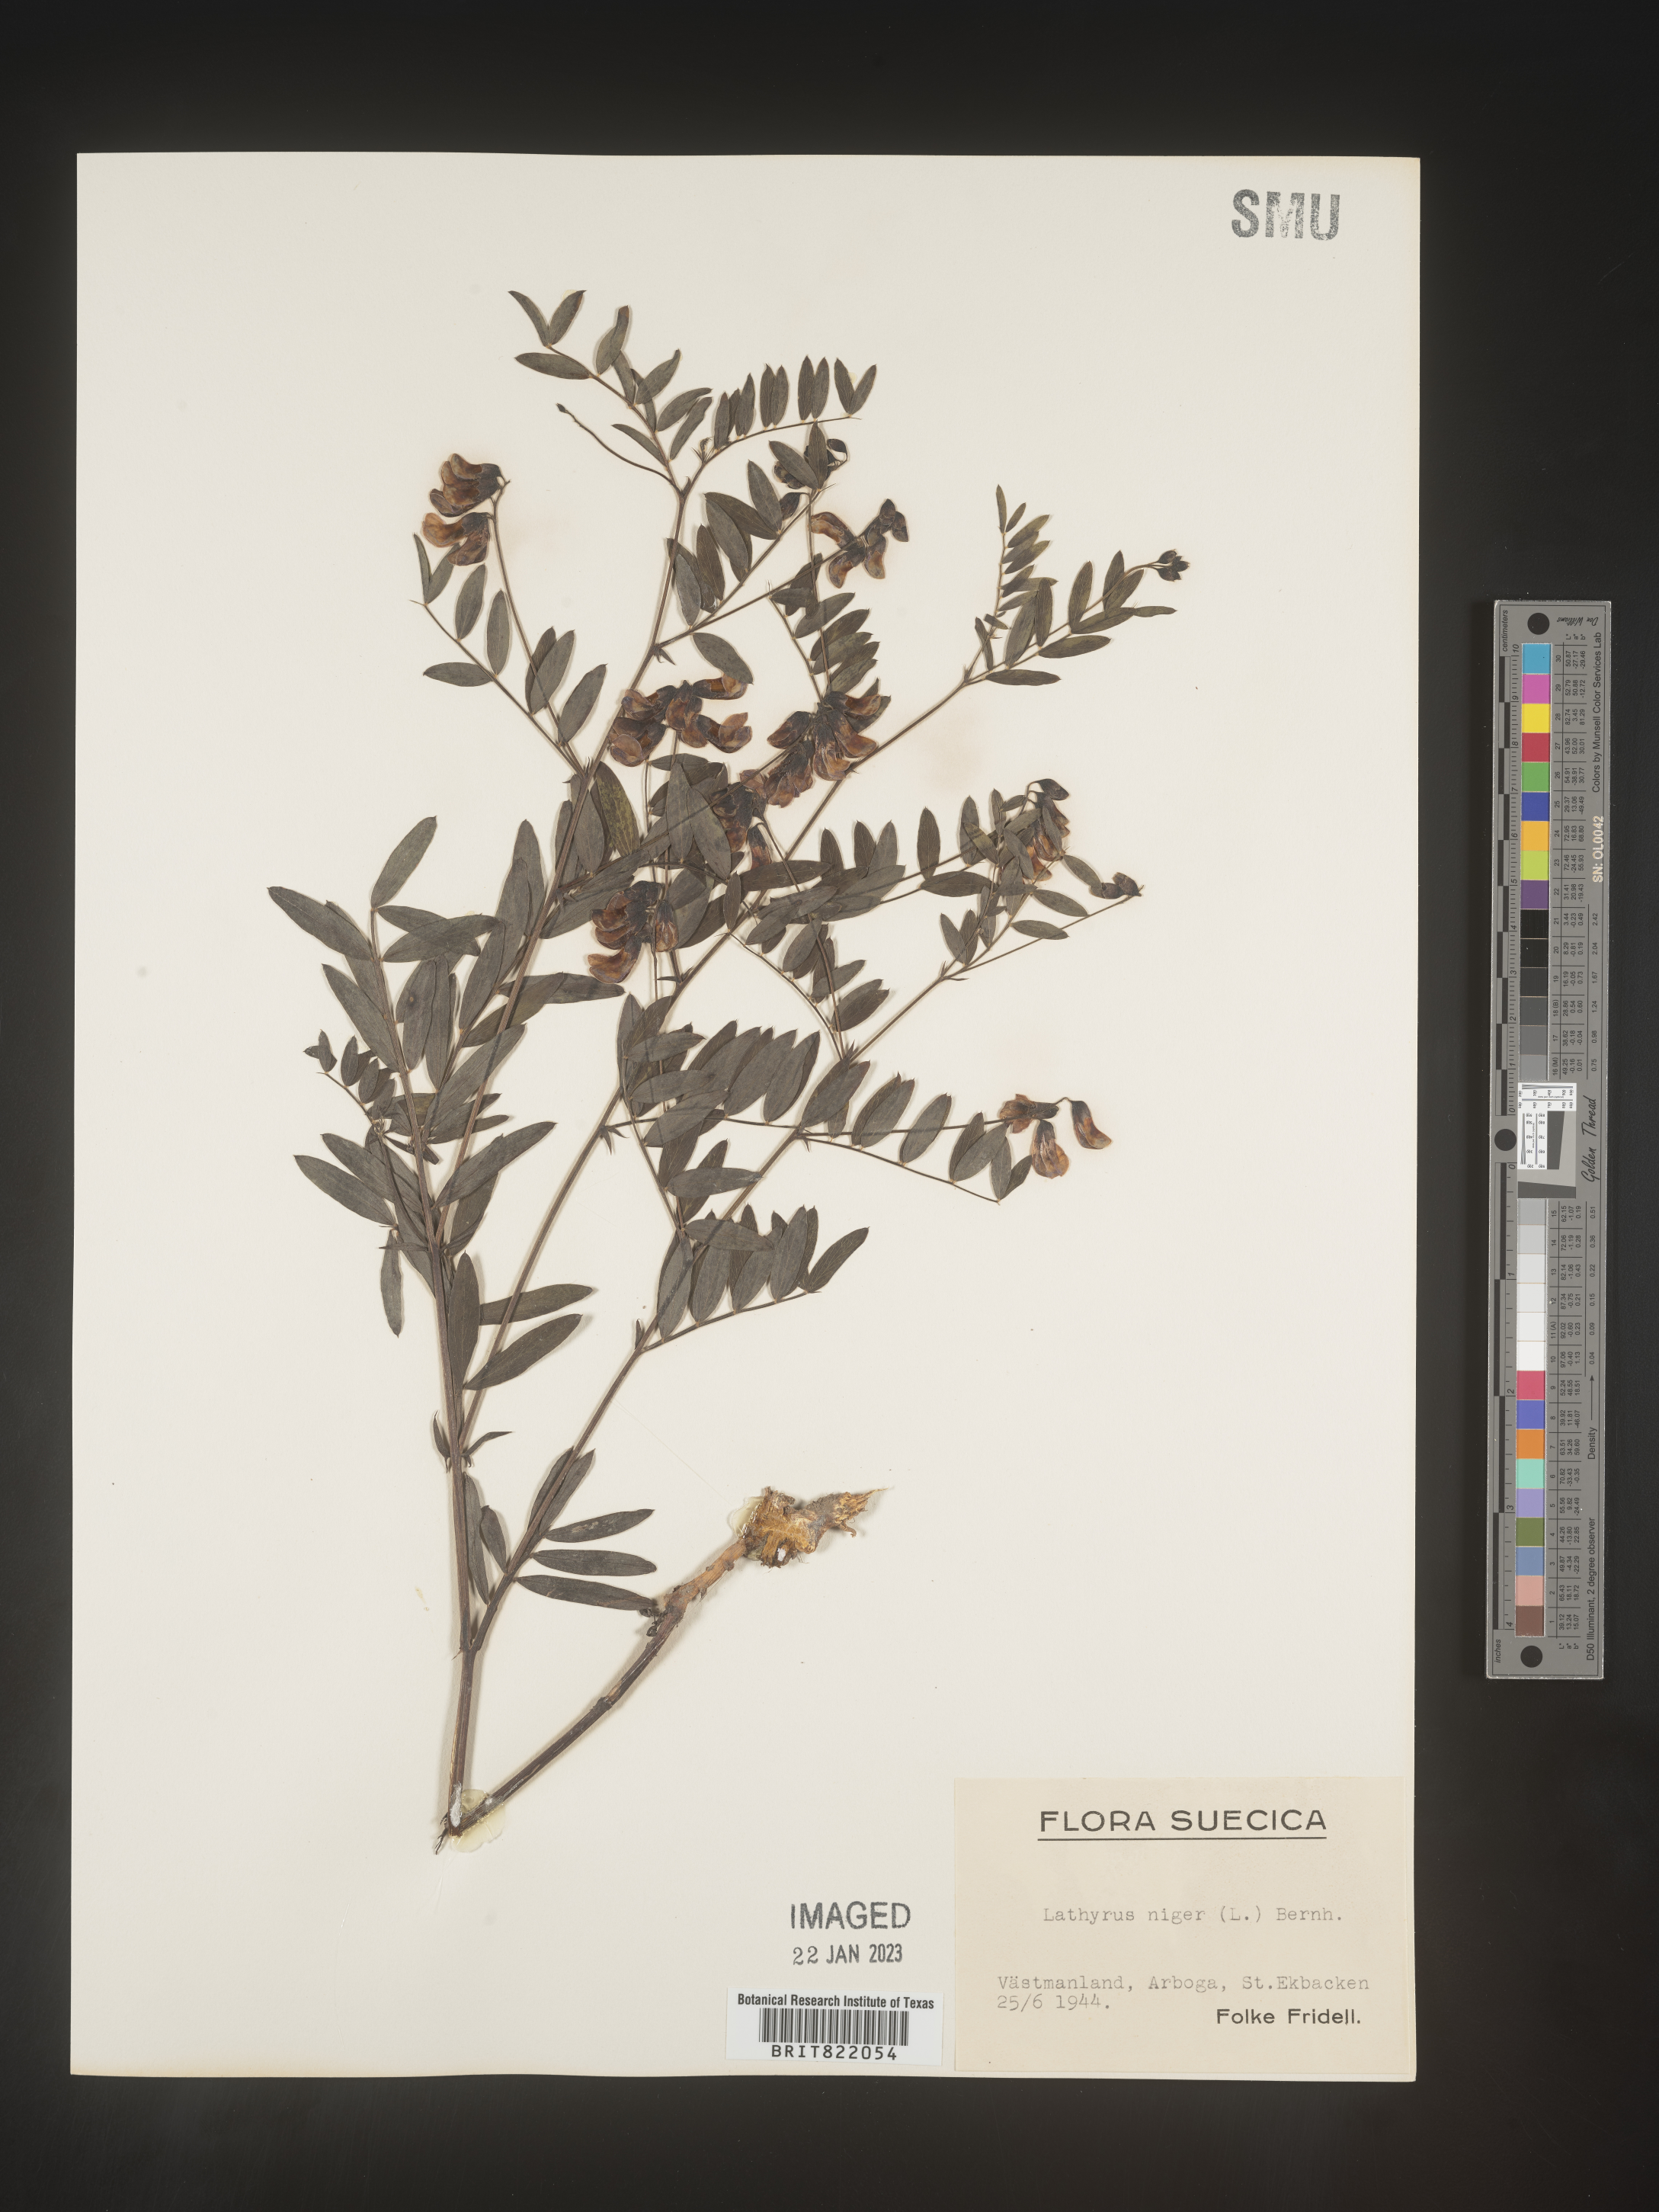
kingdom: Plantae
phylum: Tracheophyta
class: Magnoliopsida
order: Fabales
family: Fabaceae
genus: Lathyrus
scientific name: Lathyrus
